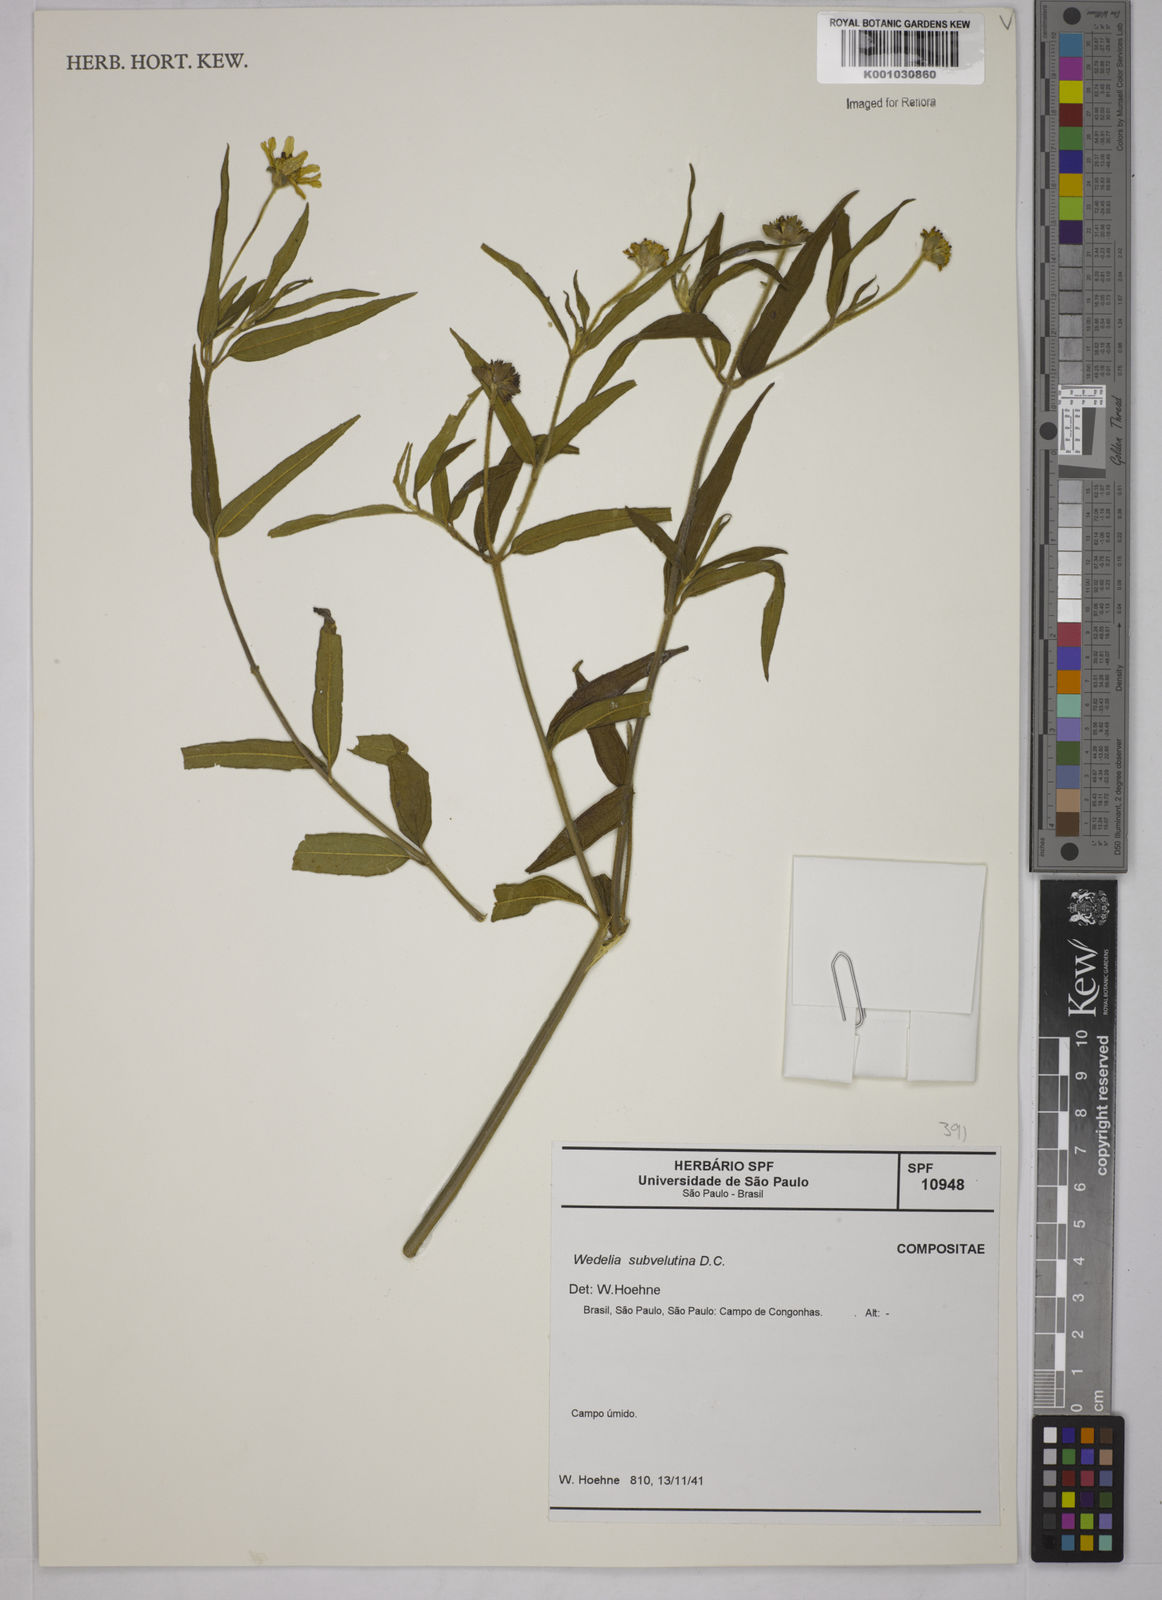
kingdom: Plantae
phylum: Tracheophyta
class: Magnoliopsida
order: Asterales
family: Asteraceae
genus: Wedelia
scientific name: Wedelia subvelutina
